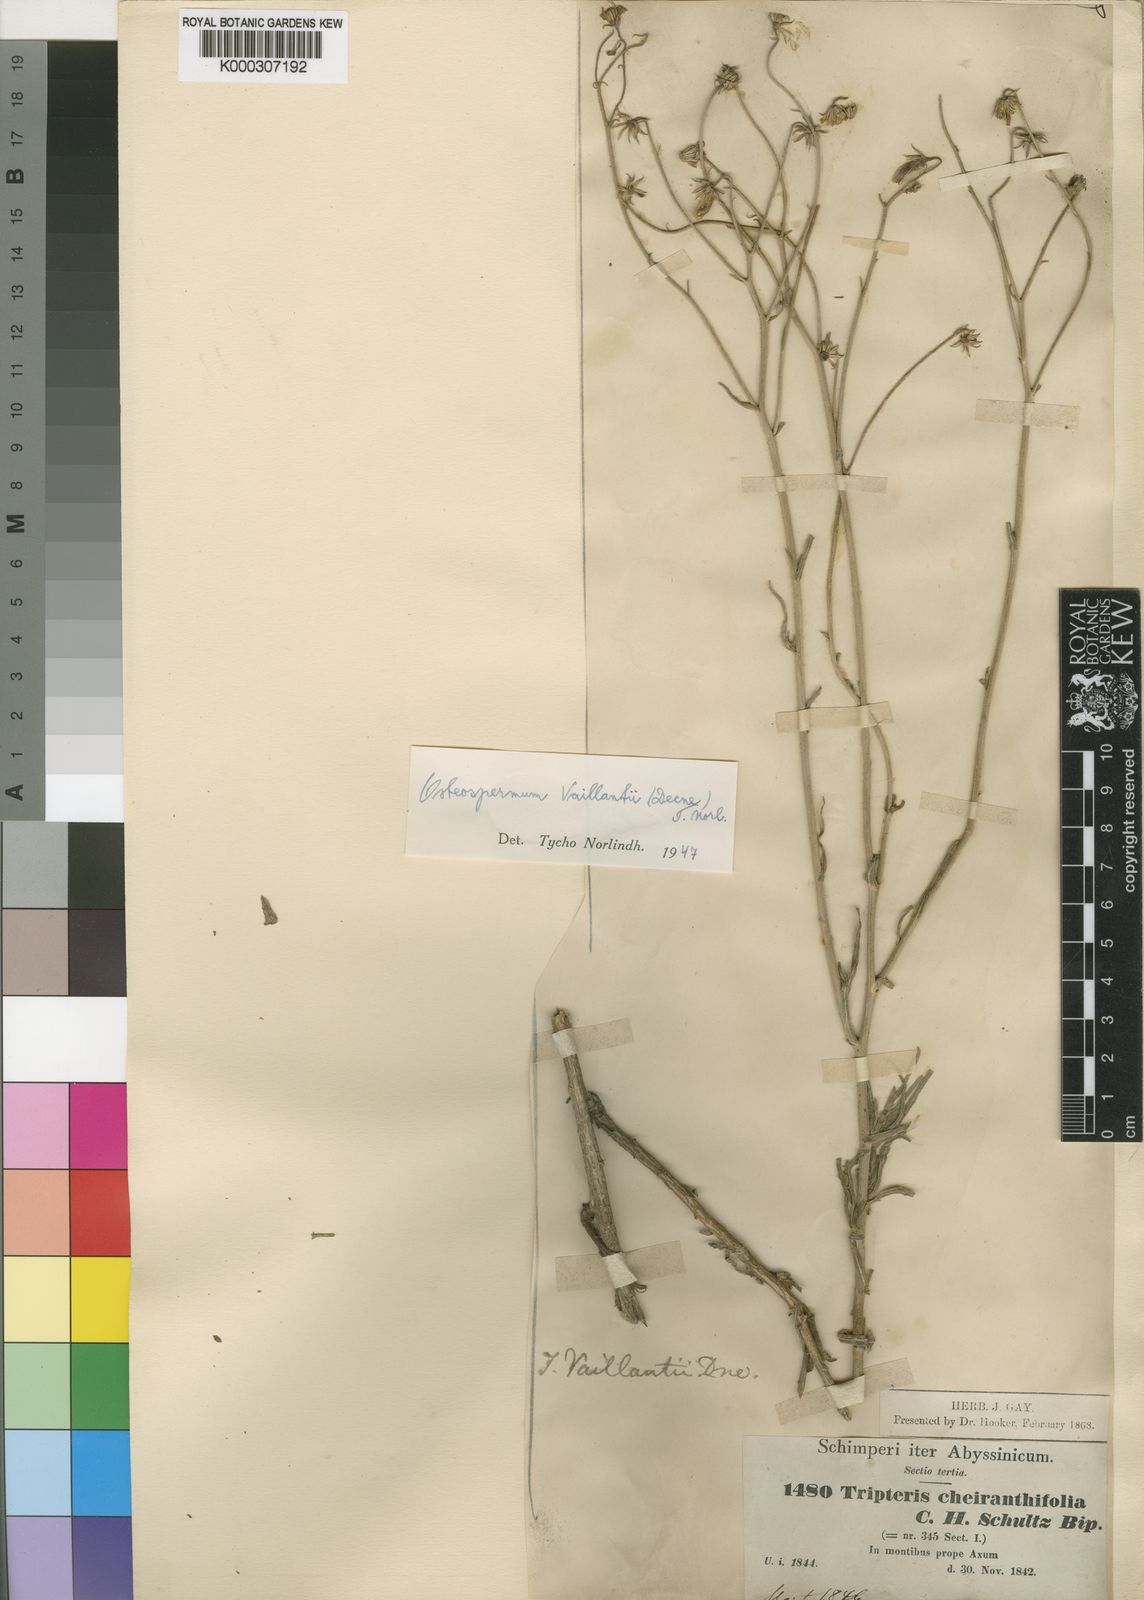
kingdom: Plantae
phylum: Tracheophyta
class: Magnoliopsida
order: Asterales
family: Asteraceae
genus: Osteospermum
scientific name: Osteospermum vaillantii
